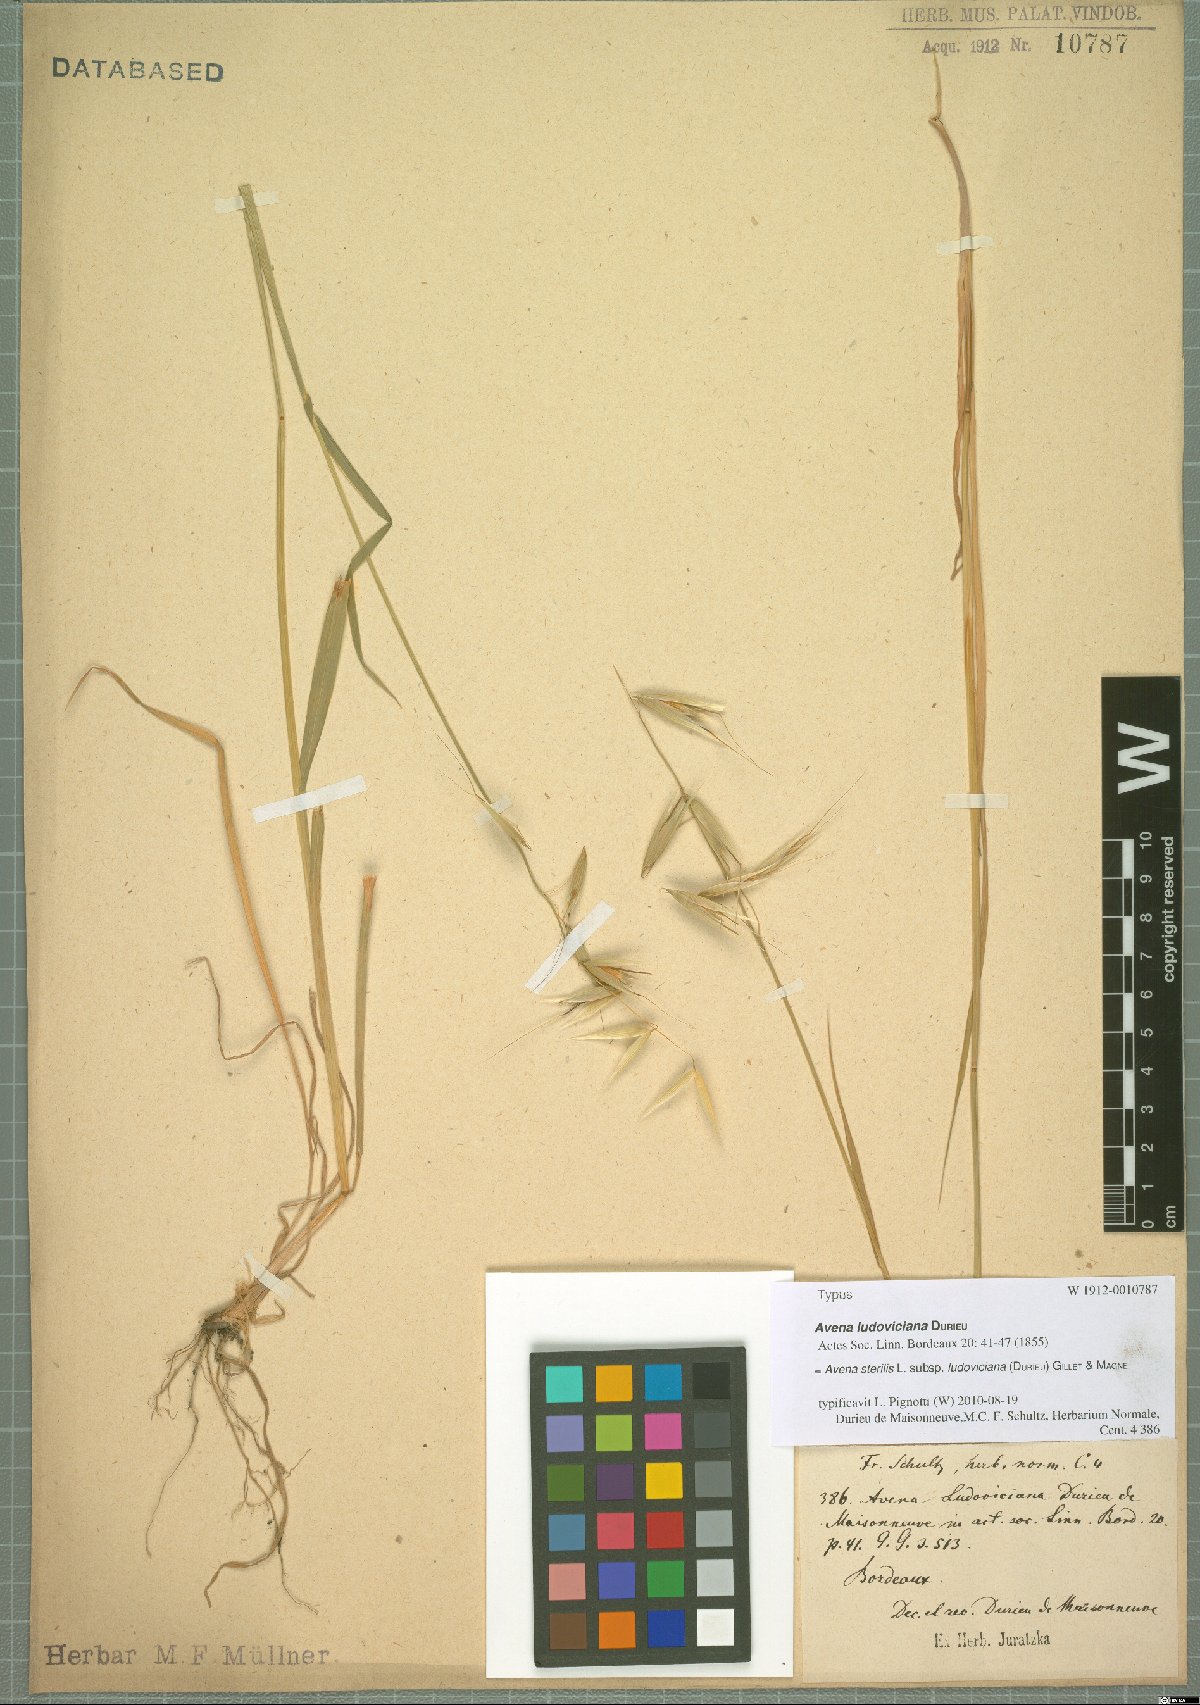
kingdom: Plantae
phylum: Tracheophyta
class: Liliopsida
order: Poales
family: Poaceae
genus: Avena
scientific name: Avena sterilis
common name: Animated oat
